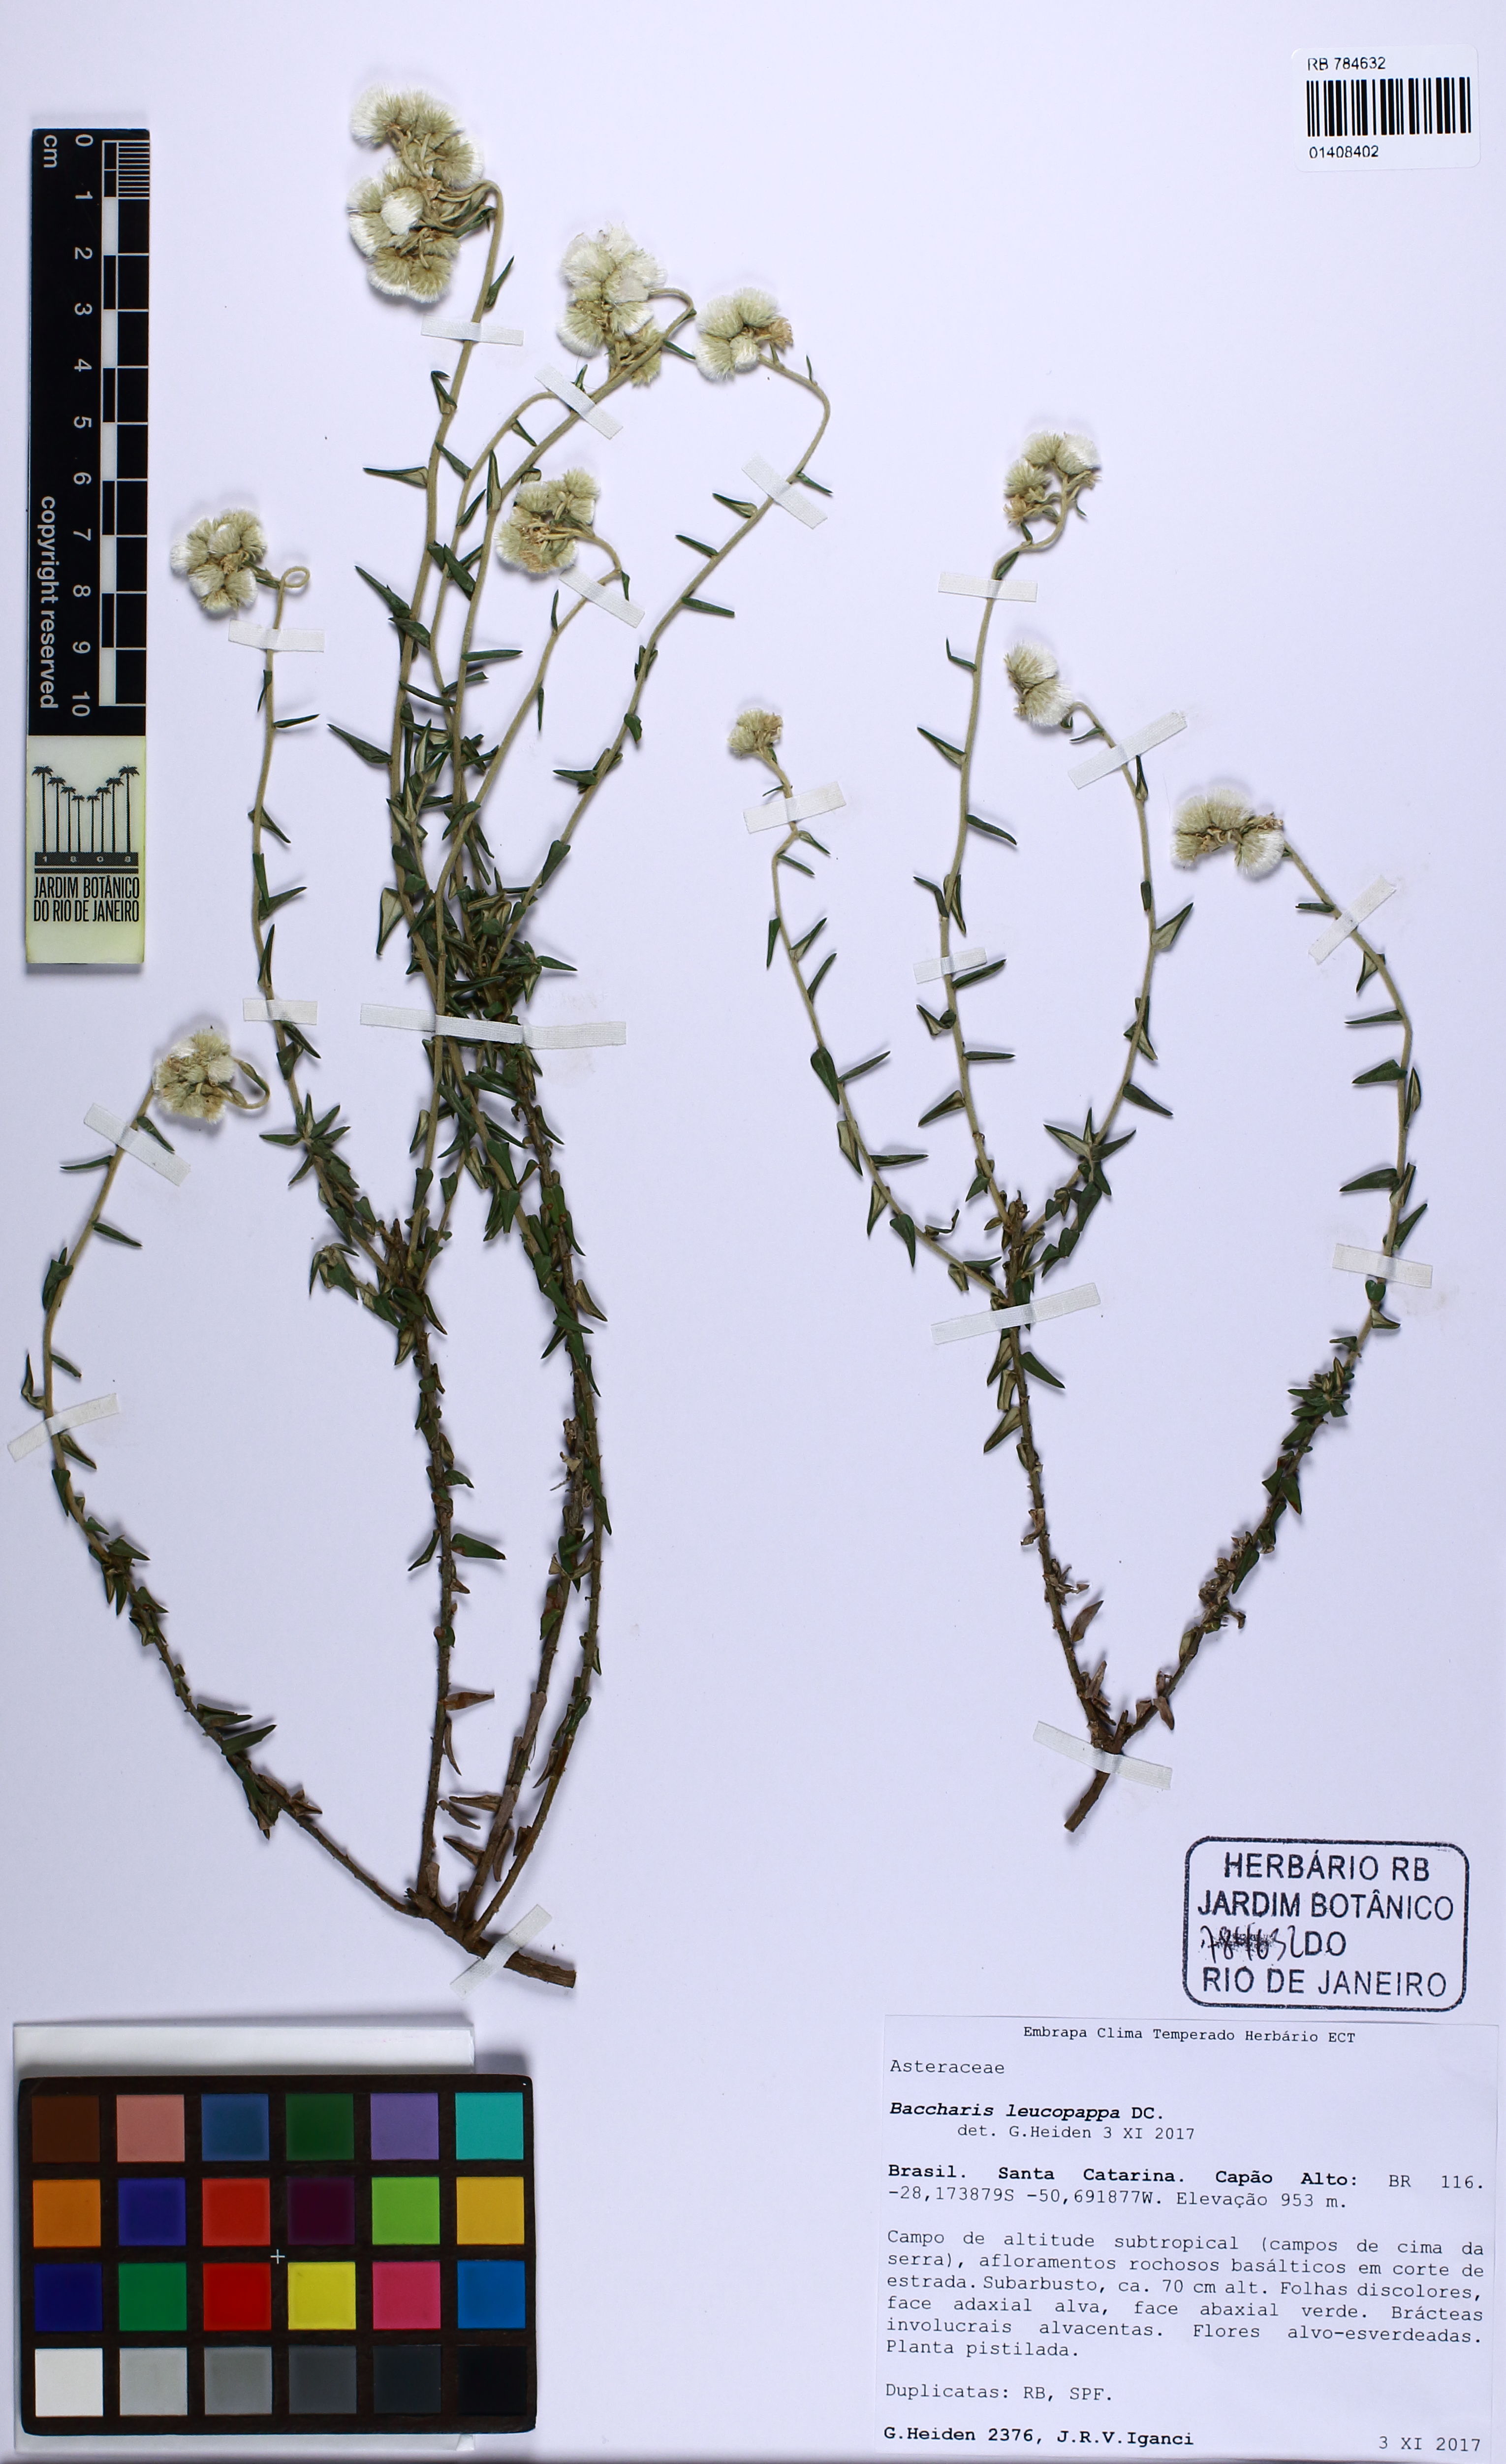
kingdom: Plantae
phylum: Tracheophyta
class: Magnoliopsida
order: Asterales
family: Asteraceae
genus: Baccharis
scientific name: Baccharis leucopappa
